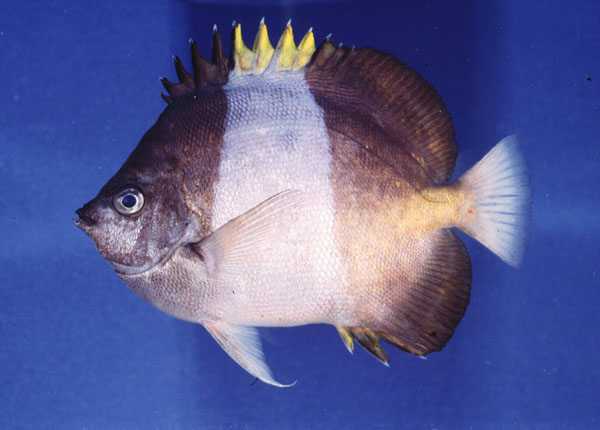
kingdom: Animalia
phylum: Chordata
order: Perciformes
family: Chaetodontidae
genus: Hemitaurichthys
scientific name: Hemitaurichthys zoster
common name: Brown-and-white butterflyfish
